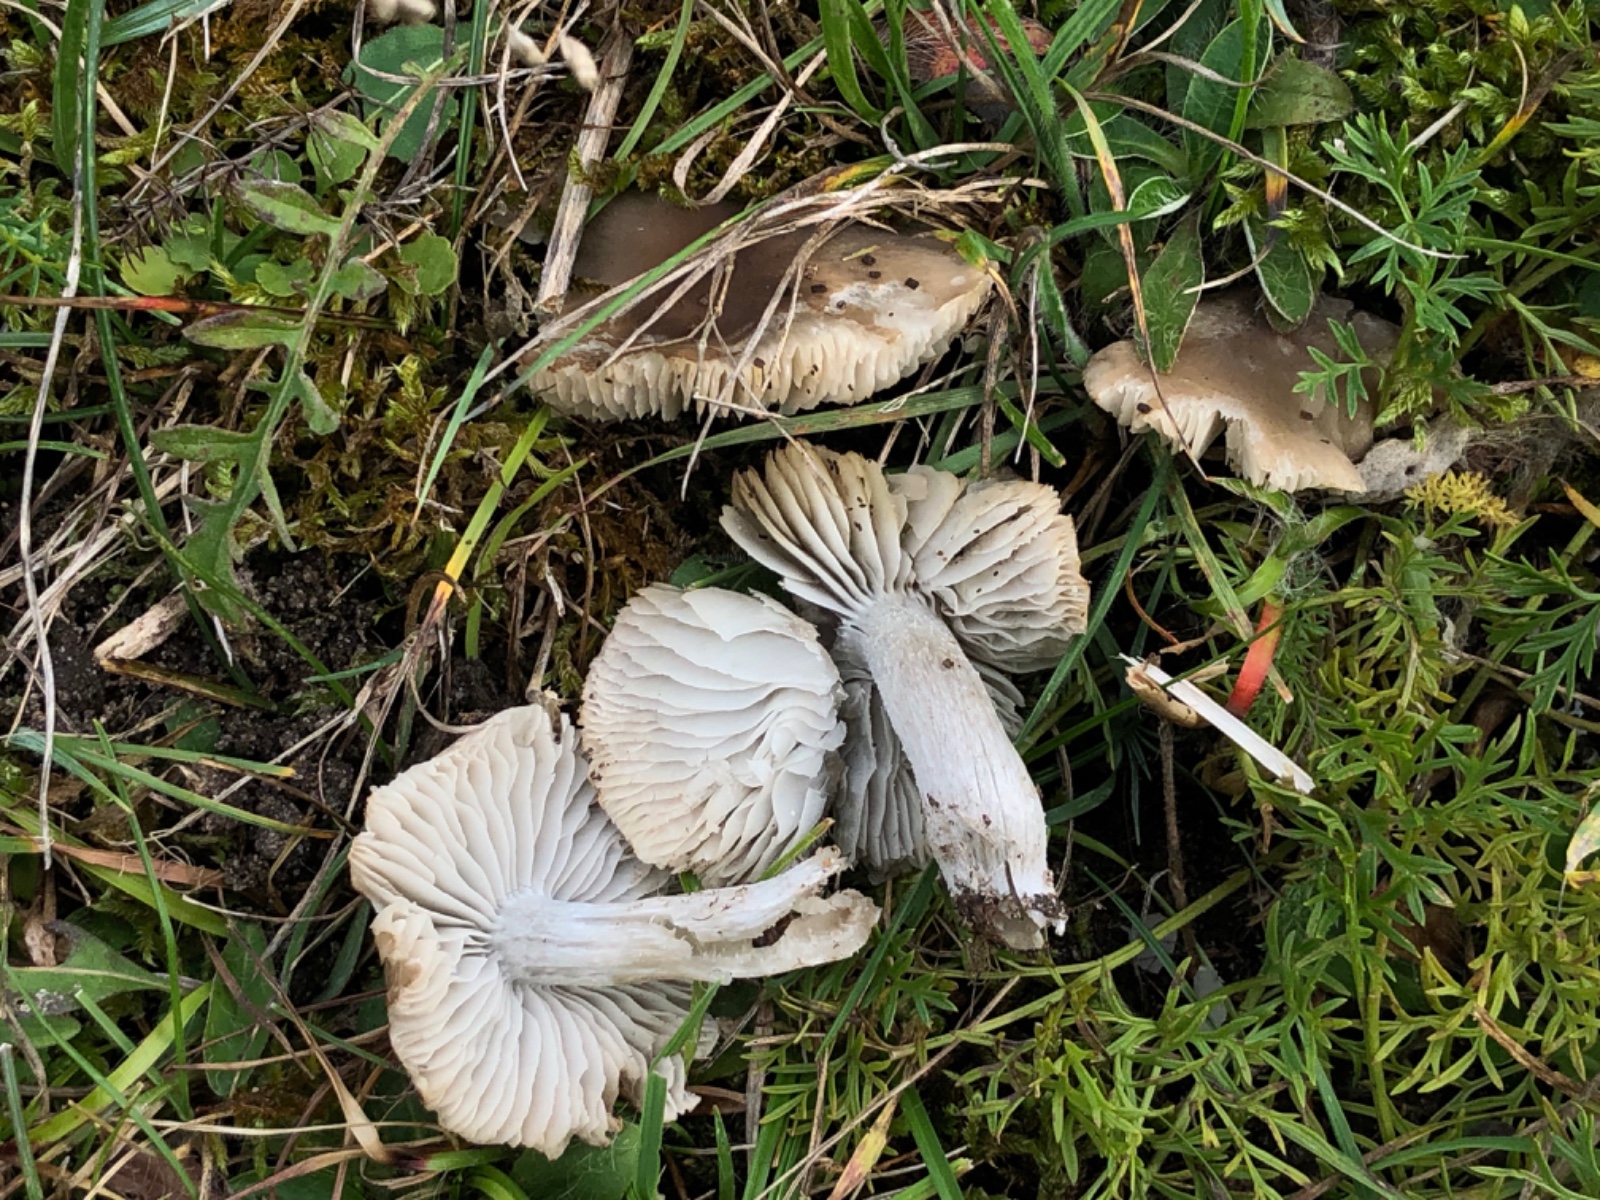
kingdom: Fungi
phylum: Basidiomycota
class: Agaricomycetes
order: Agaricales
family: Tricholomataceae
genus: Dermoloma
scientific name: Dermoloma cuneifolium
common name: eng-nonnehat
